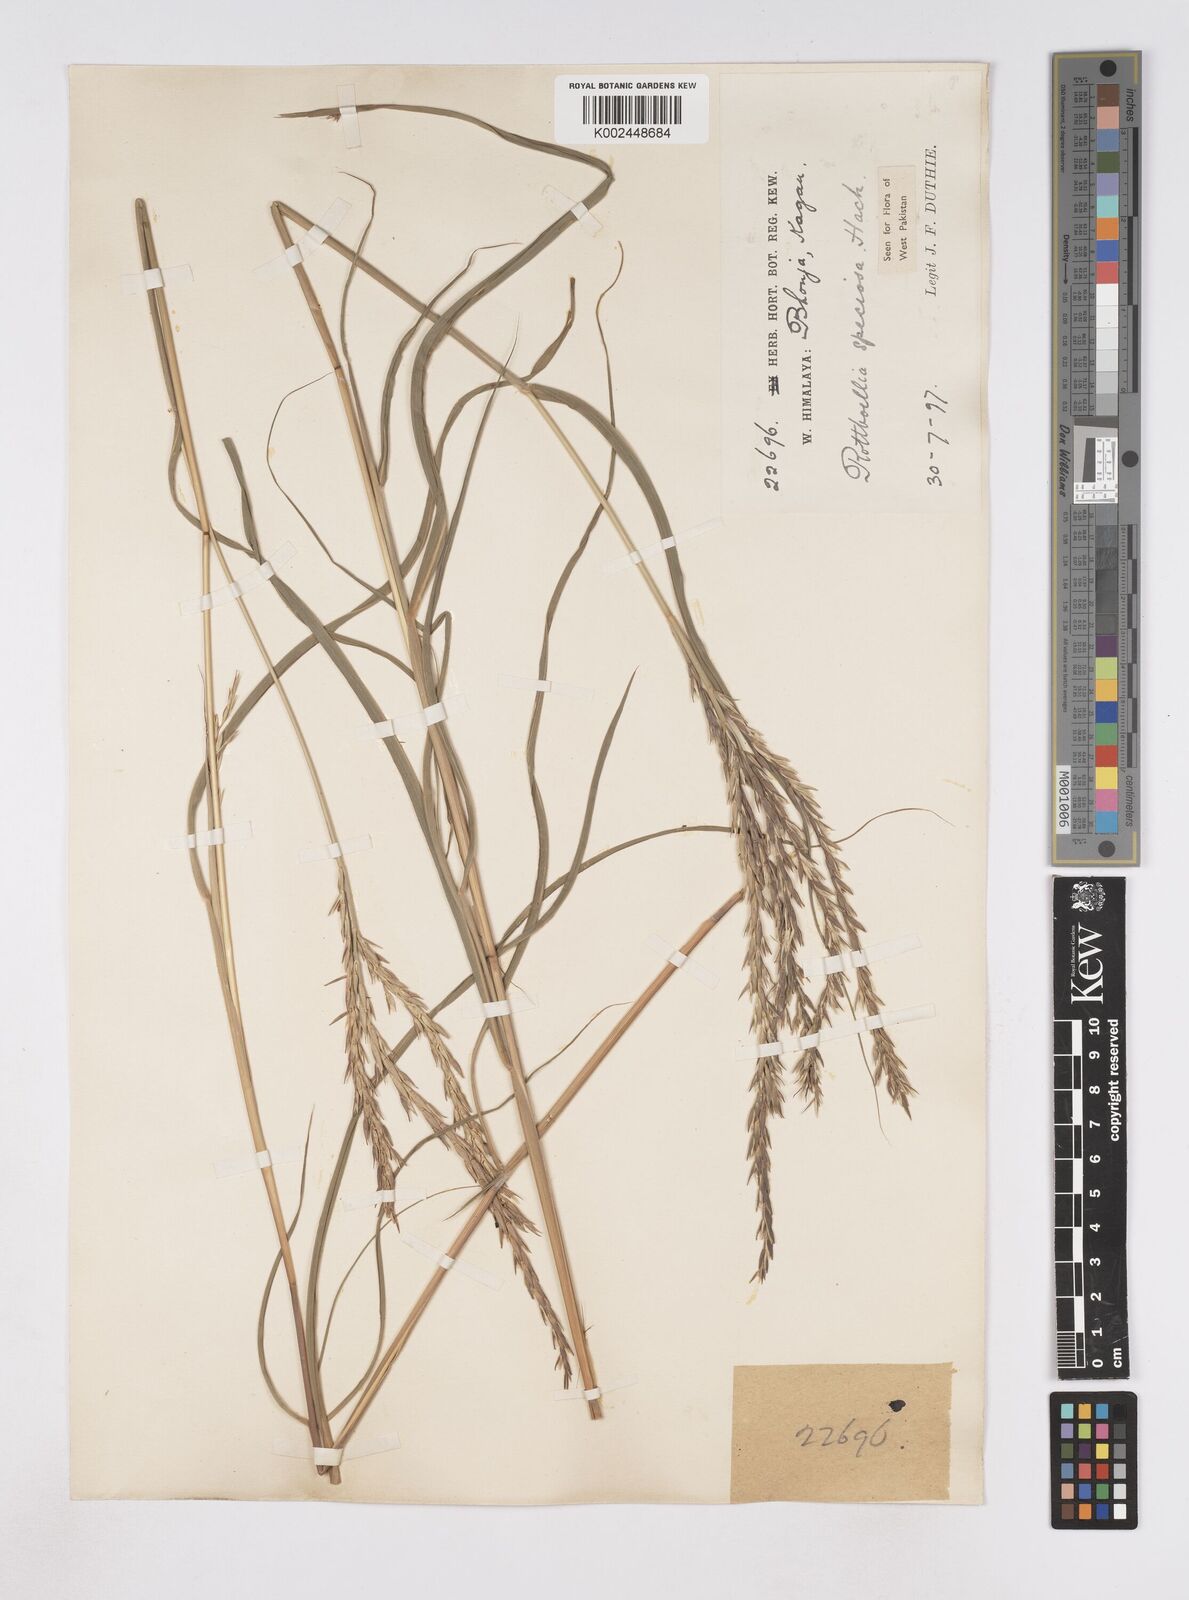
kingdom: Plantae
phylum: Tracheophyta
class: Liliopsida
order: Poales
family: Poaceae
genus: Phacelurus
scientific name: Phacelurus speciosus
